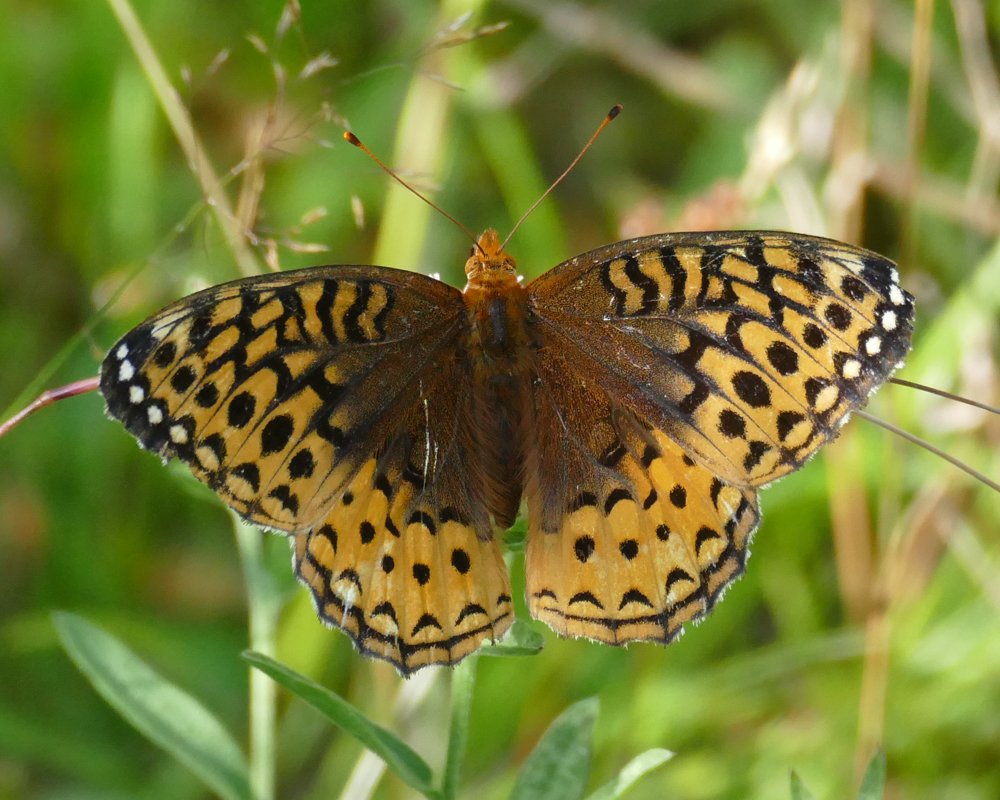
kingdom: Animalia
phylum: Arthropoda
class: Insecta
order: Lepidoptera
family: Nymphalidae
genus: Speyeria
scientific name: Speyeria cybele
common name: Great Spangled Fritillary
